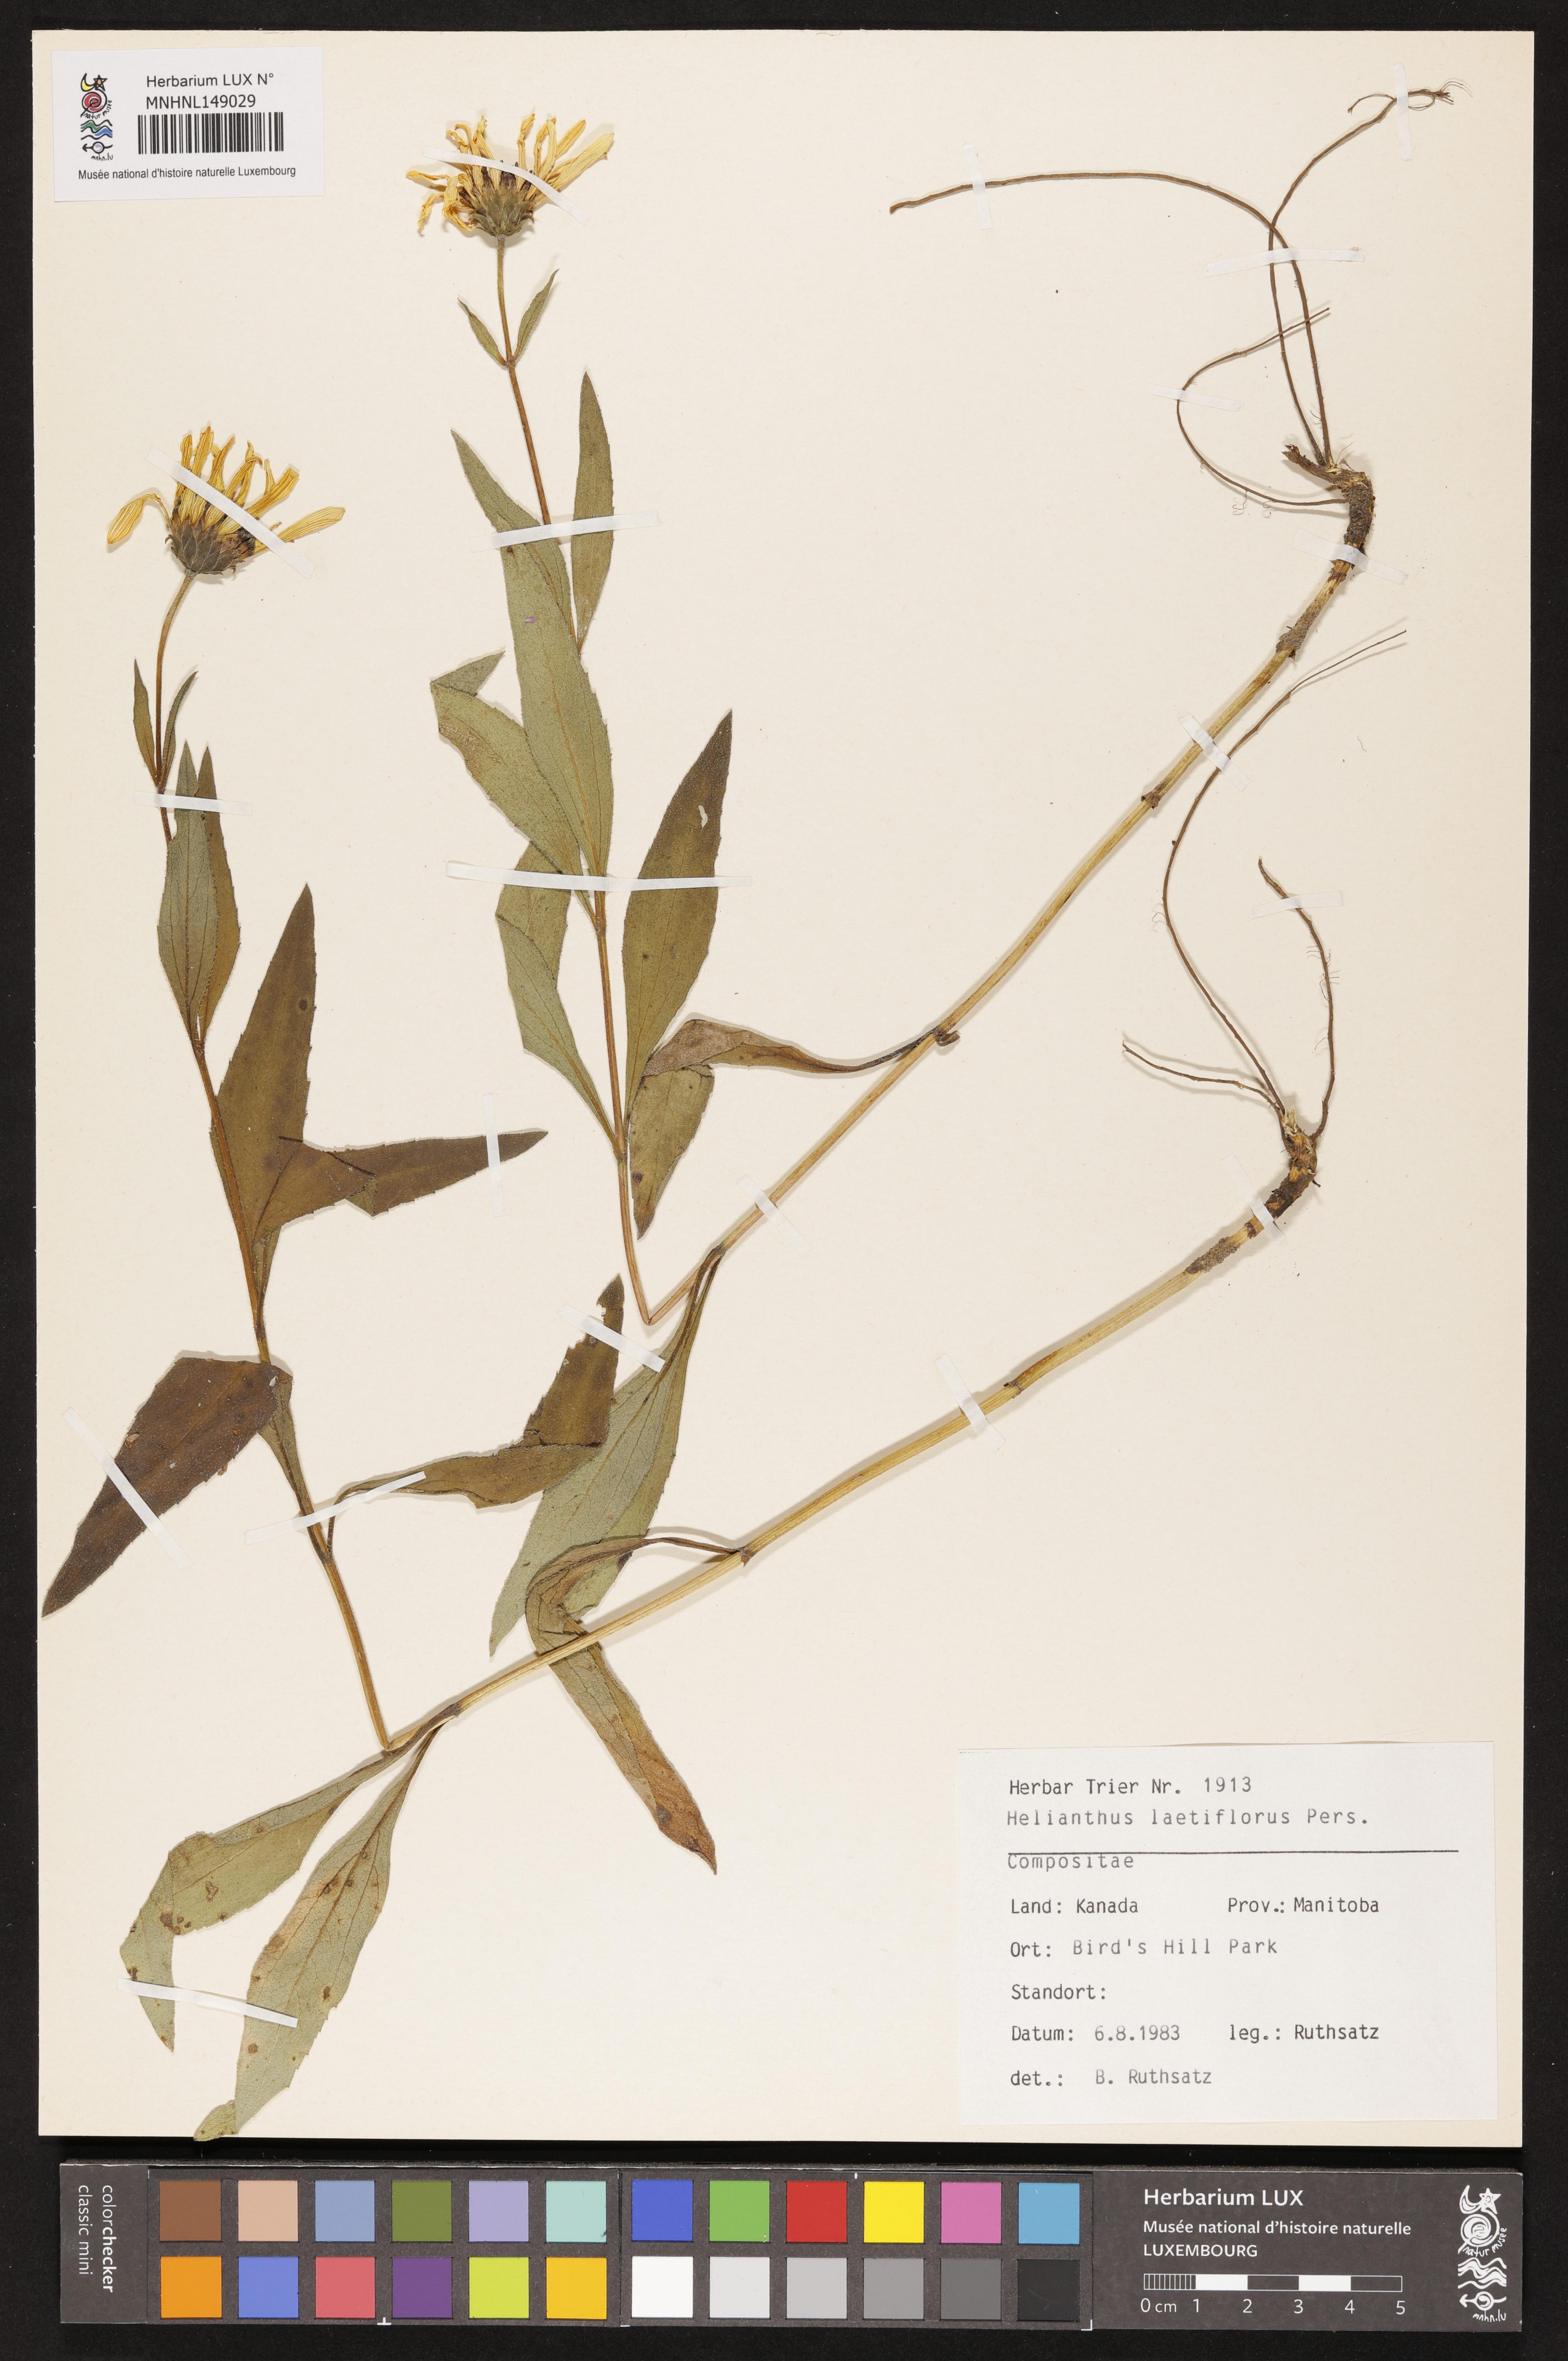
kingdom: Plantae
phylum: Tracheophyta
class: Magnoliopsida
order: Asterales
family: Asteraceae
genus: Helianthus
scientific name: Helianthus laetiflorus
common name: Perennial sunflower
